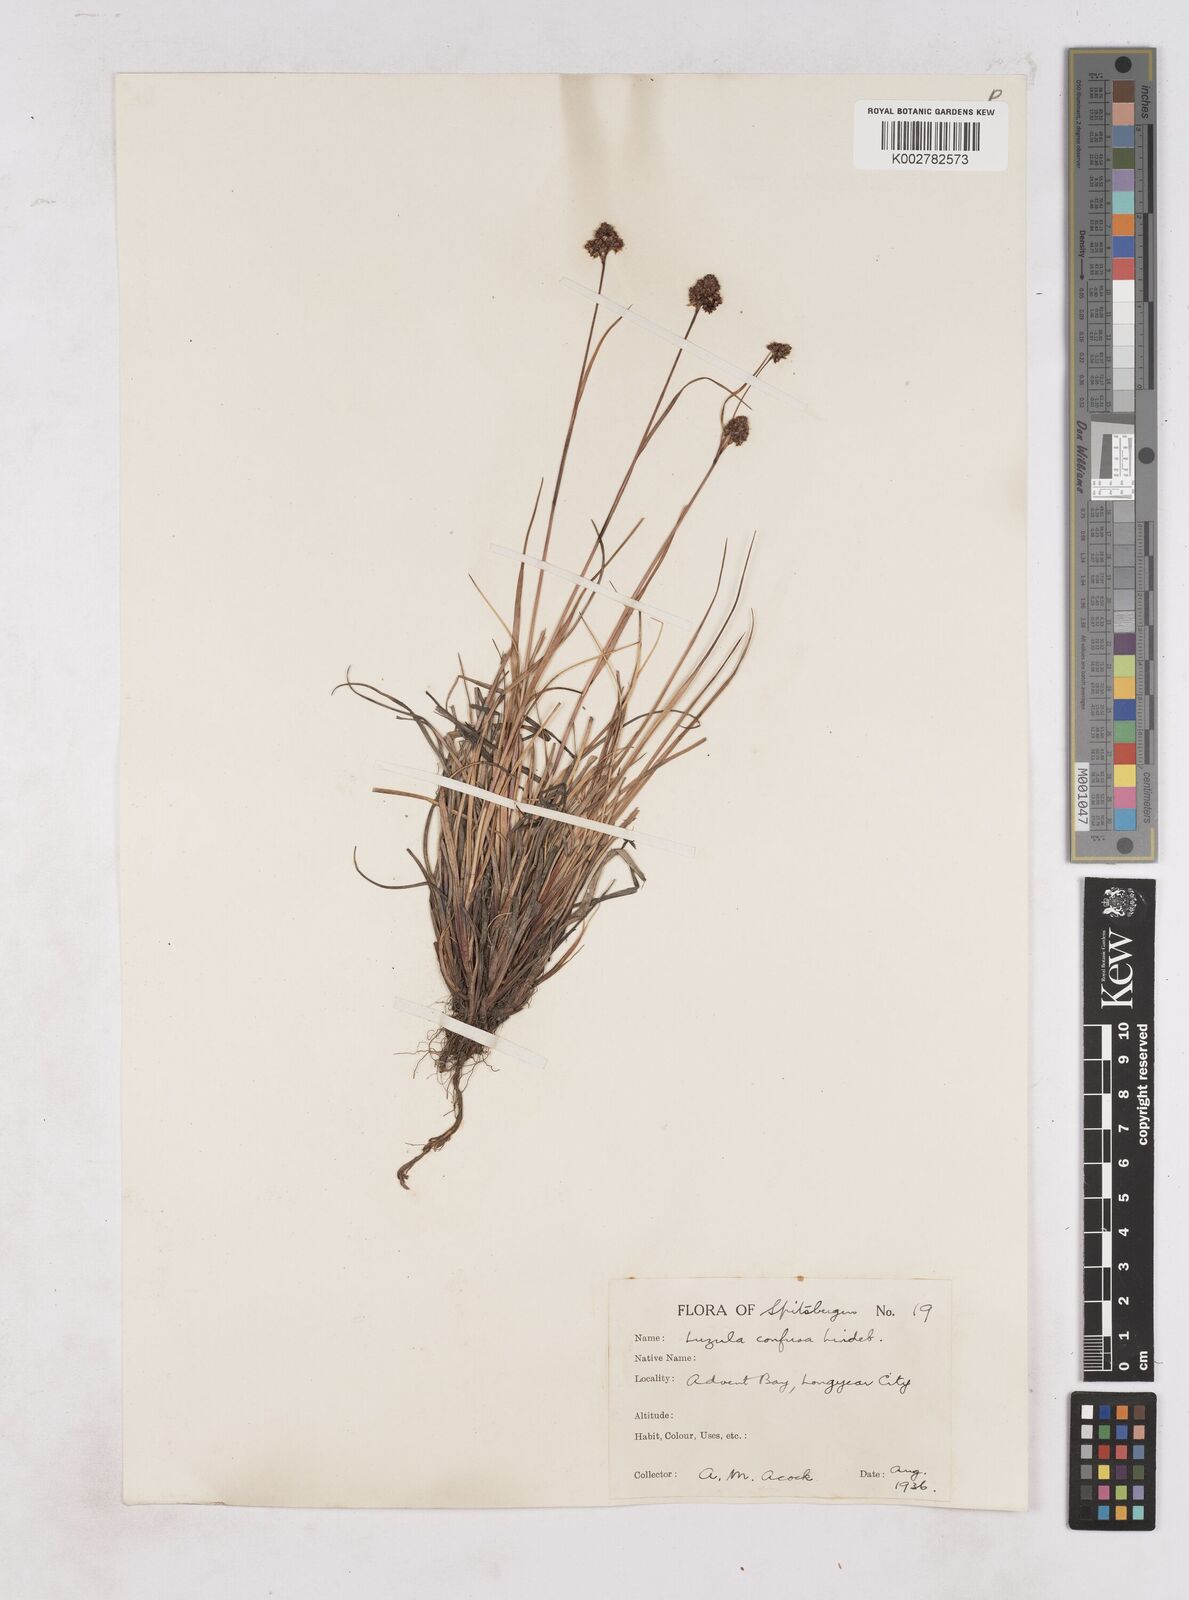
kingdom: Plantae
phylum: Tracheophyta
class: Liliopsida
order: Poales
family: Juncaceae
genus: Luzula
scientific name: Luzula confusa
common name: Northern wood rush
